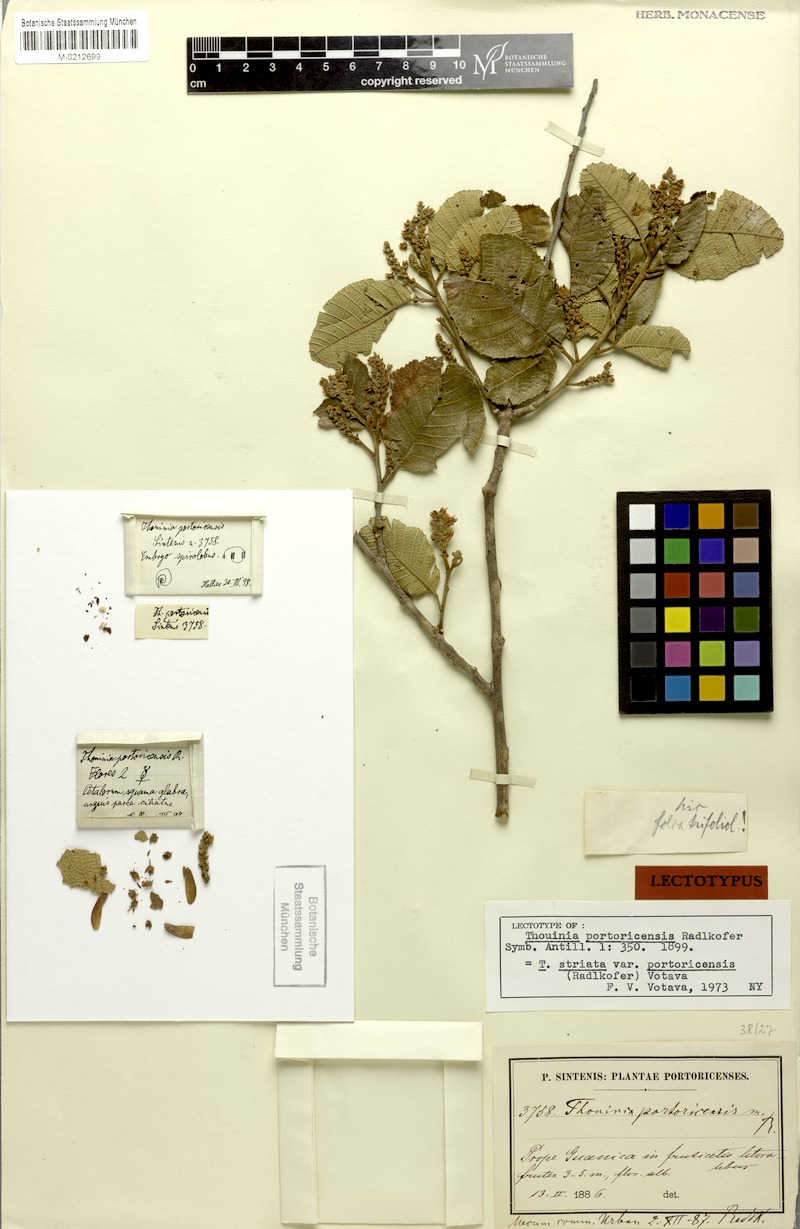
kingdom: Plantae
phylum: Tracheophyta
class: Magnoliopsida
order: Sapindales
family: Sapindaceae
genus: Thouinia
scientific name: Thouinia striata
